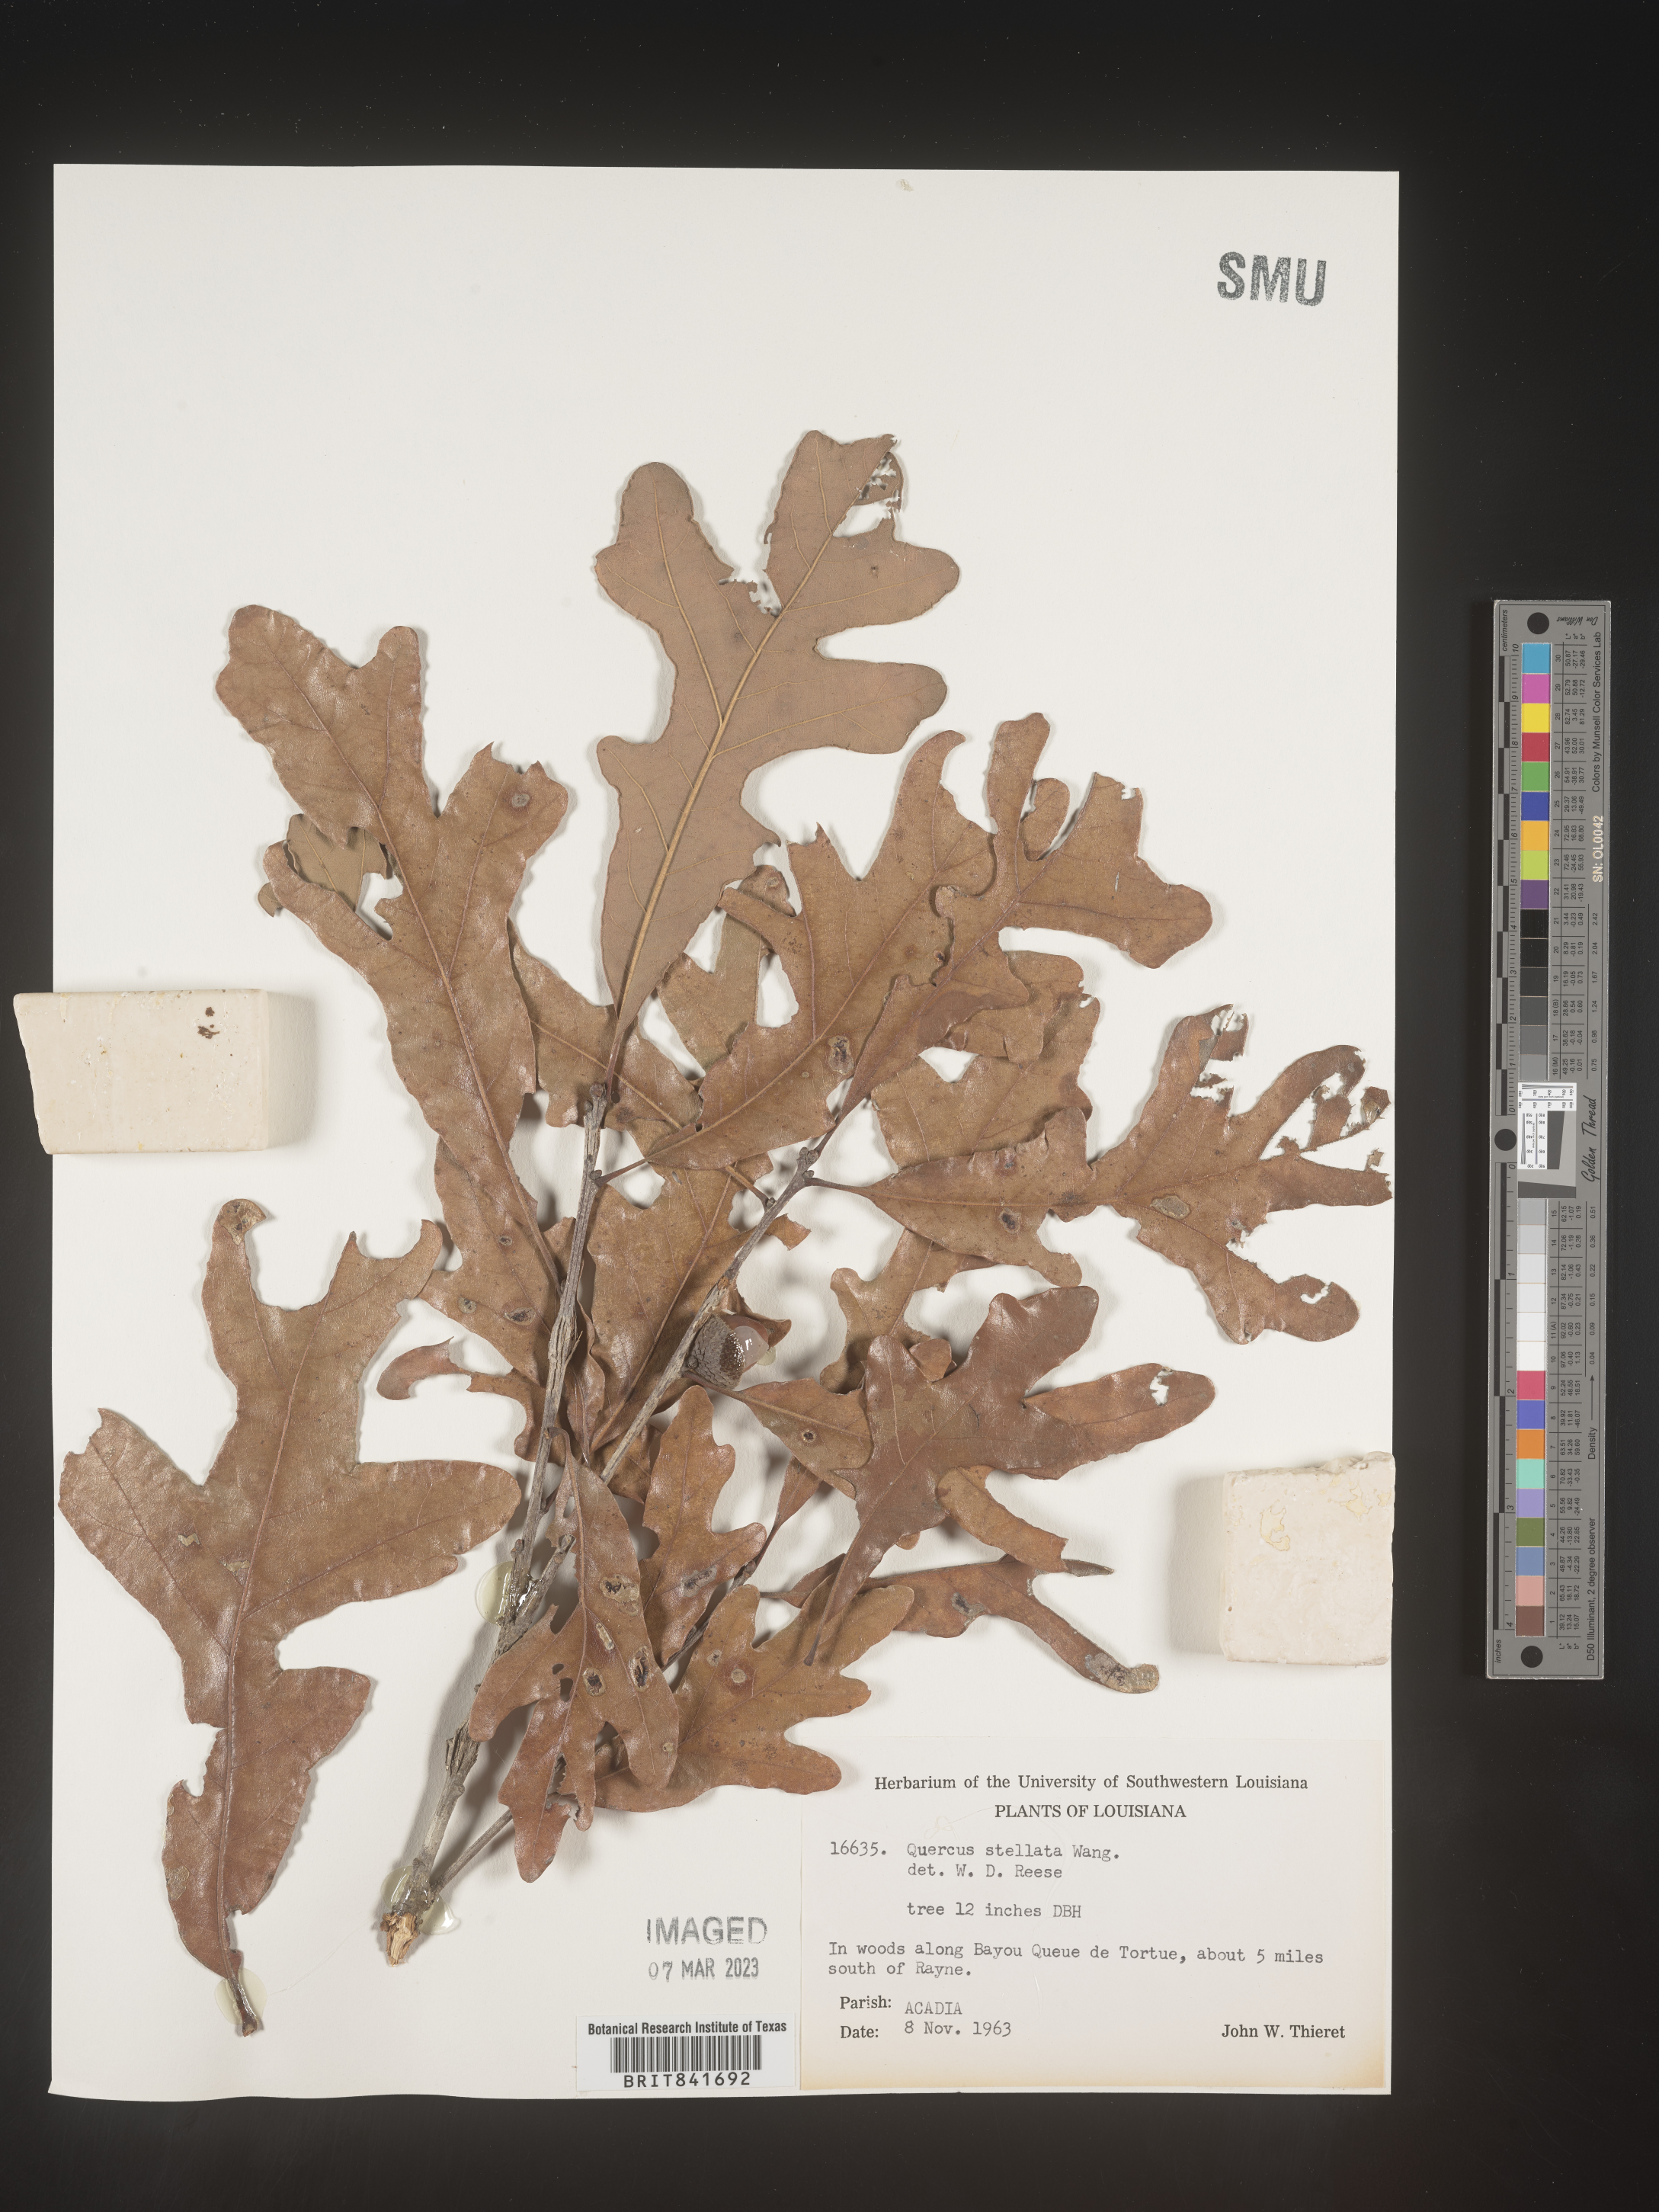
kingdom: Plantae
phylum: Tracheophyta
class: Magnoliopsida
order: Fagales
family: Fagaceae
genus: Quercus
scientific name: Quercus stellata
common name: Post oak
